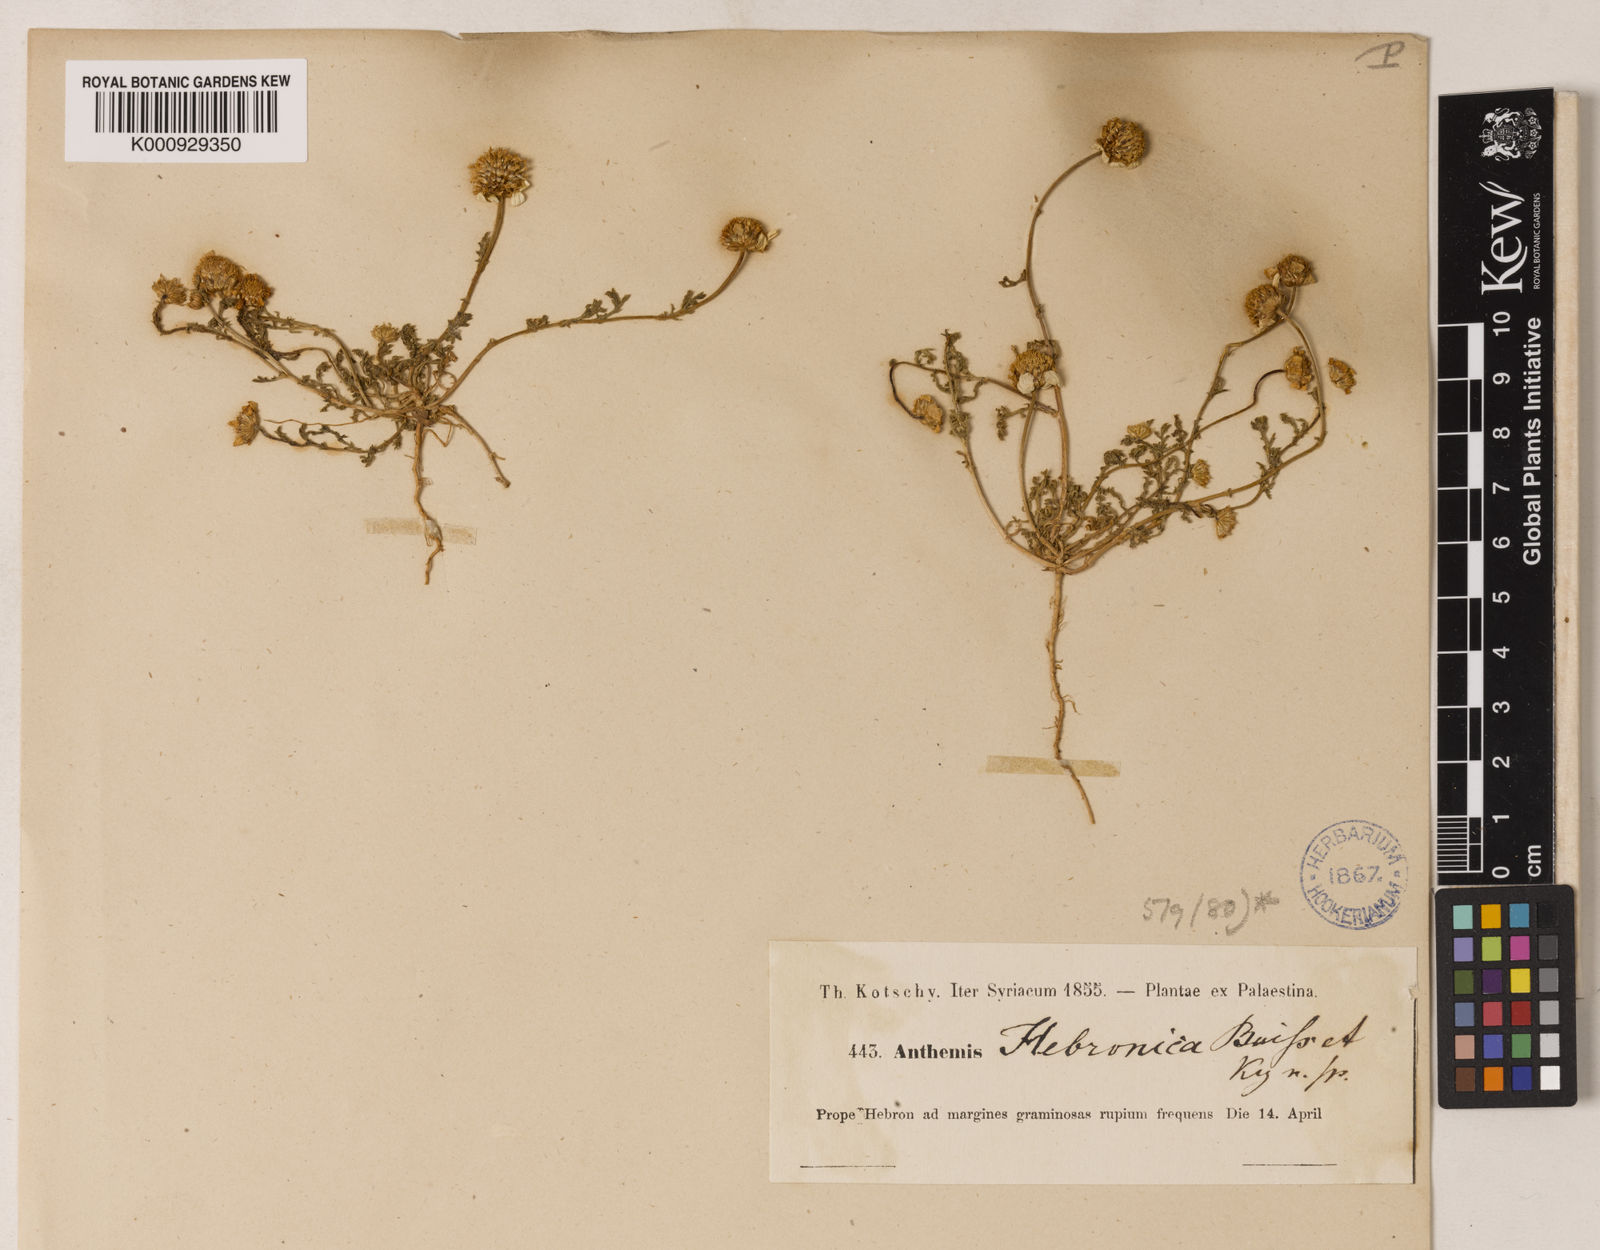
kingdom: Plantae
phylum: Tracheophyta
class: Magnoliopsida
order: Asterales
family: Asteraceae
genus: Anthemis
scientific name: Anthemis hebronica
